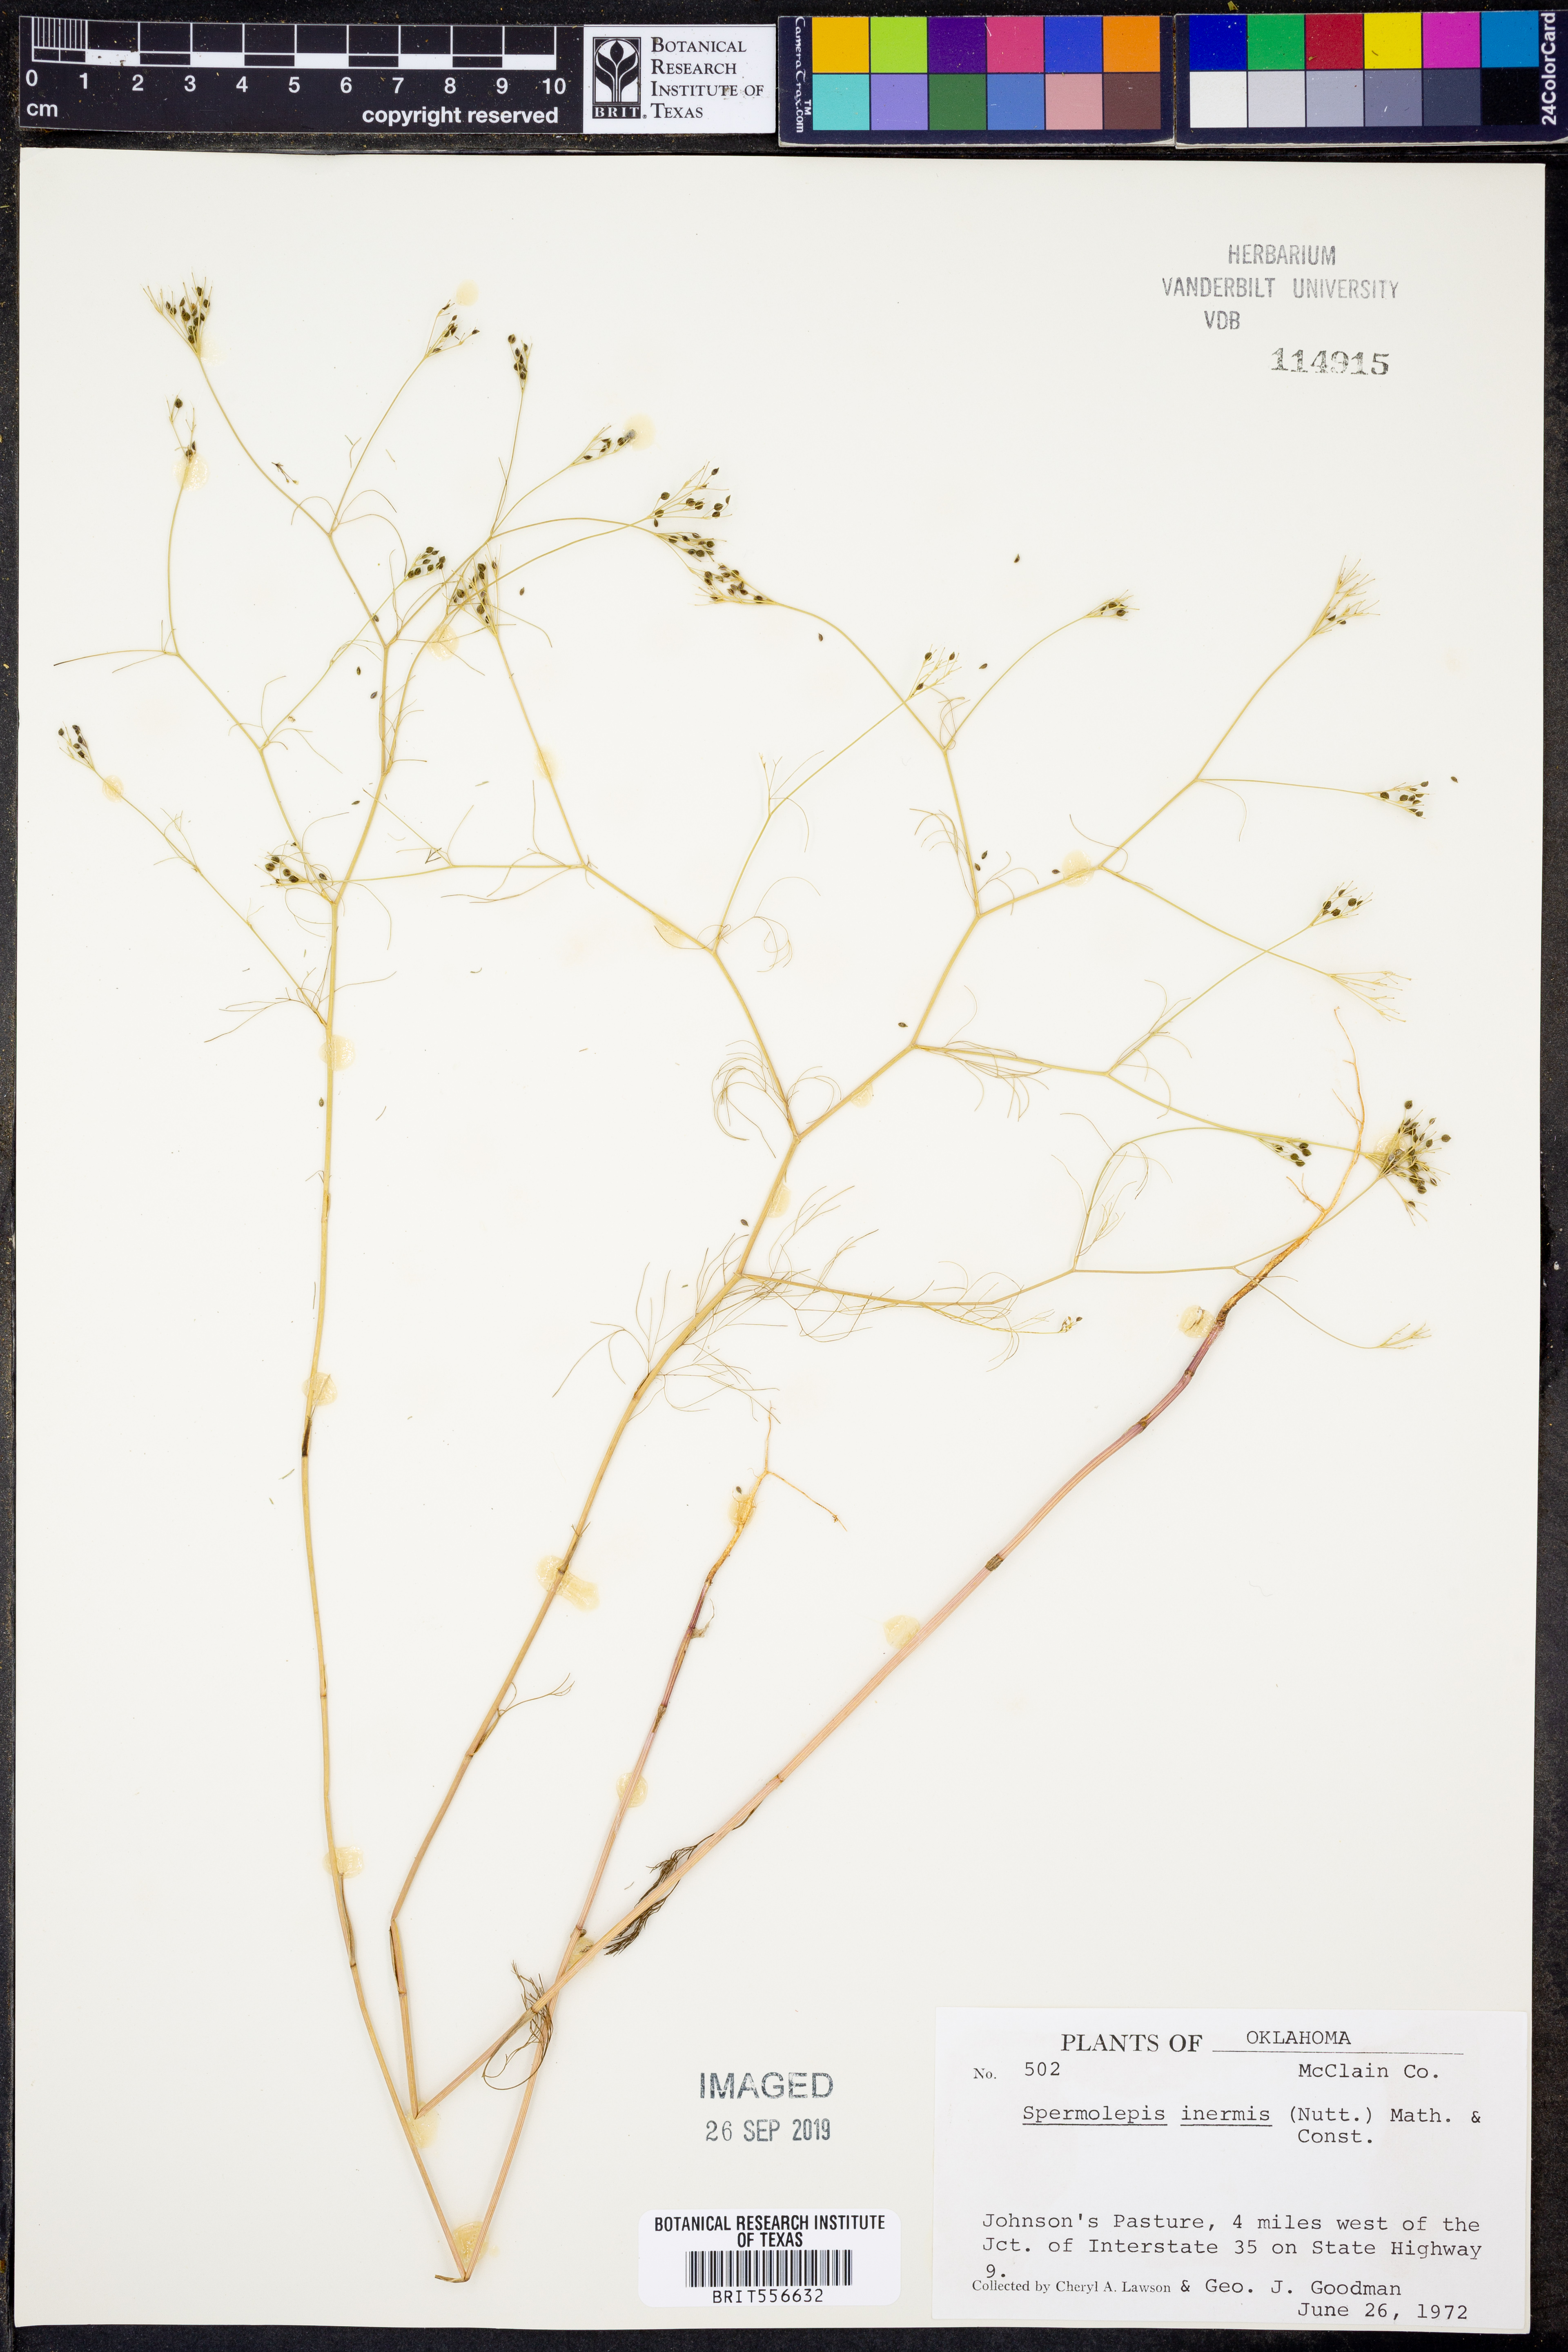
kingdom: Plantae
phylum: Tracheophyta
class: Magnoliopsida
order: Apiales
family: Apiaceae
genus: Spermolepis
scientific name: Spermolepis inermis
